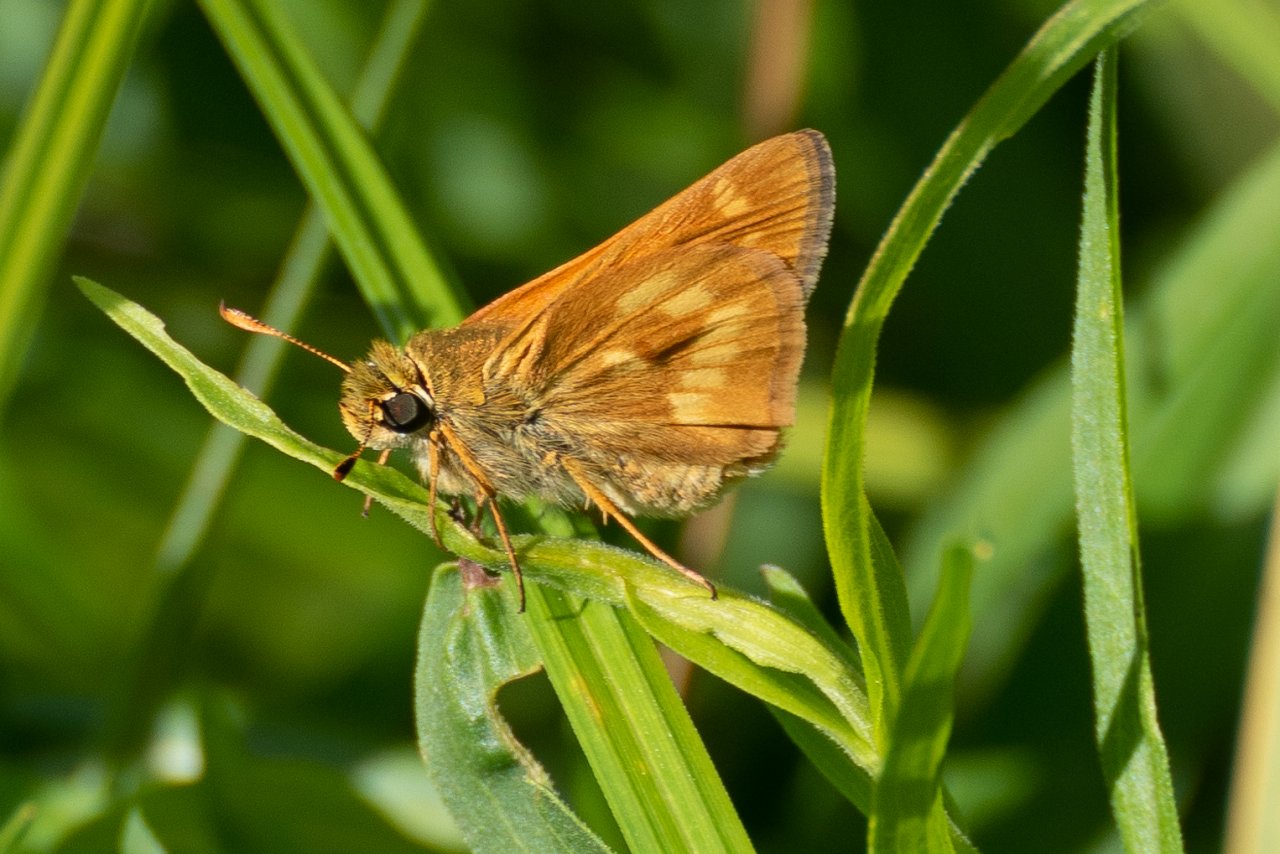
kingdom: Animalia
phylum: Arthropoda
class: Insecta
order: Lepidoptera
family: Hesperiidae
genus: Polites
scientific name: Polites
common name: Long Dash Skipper
